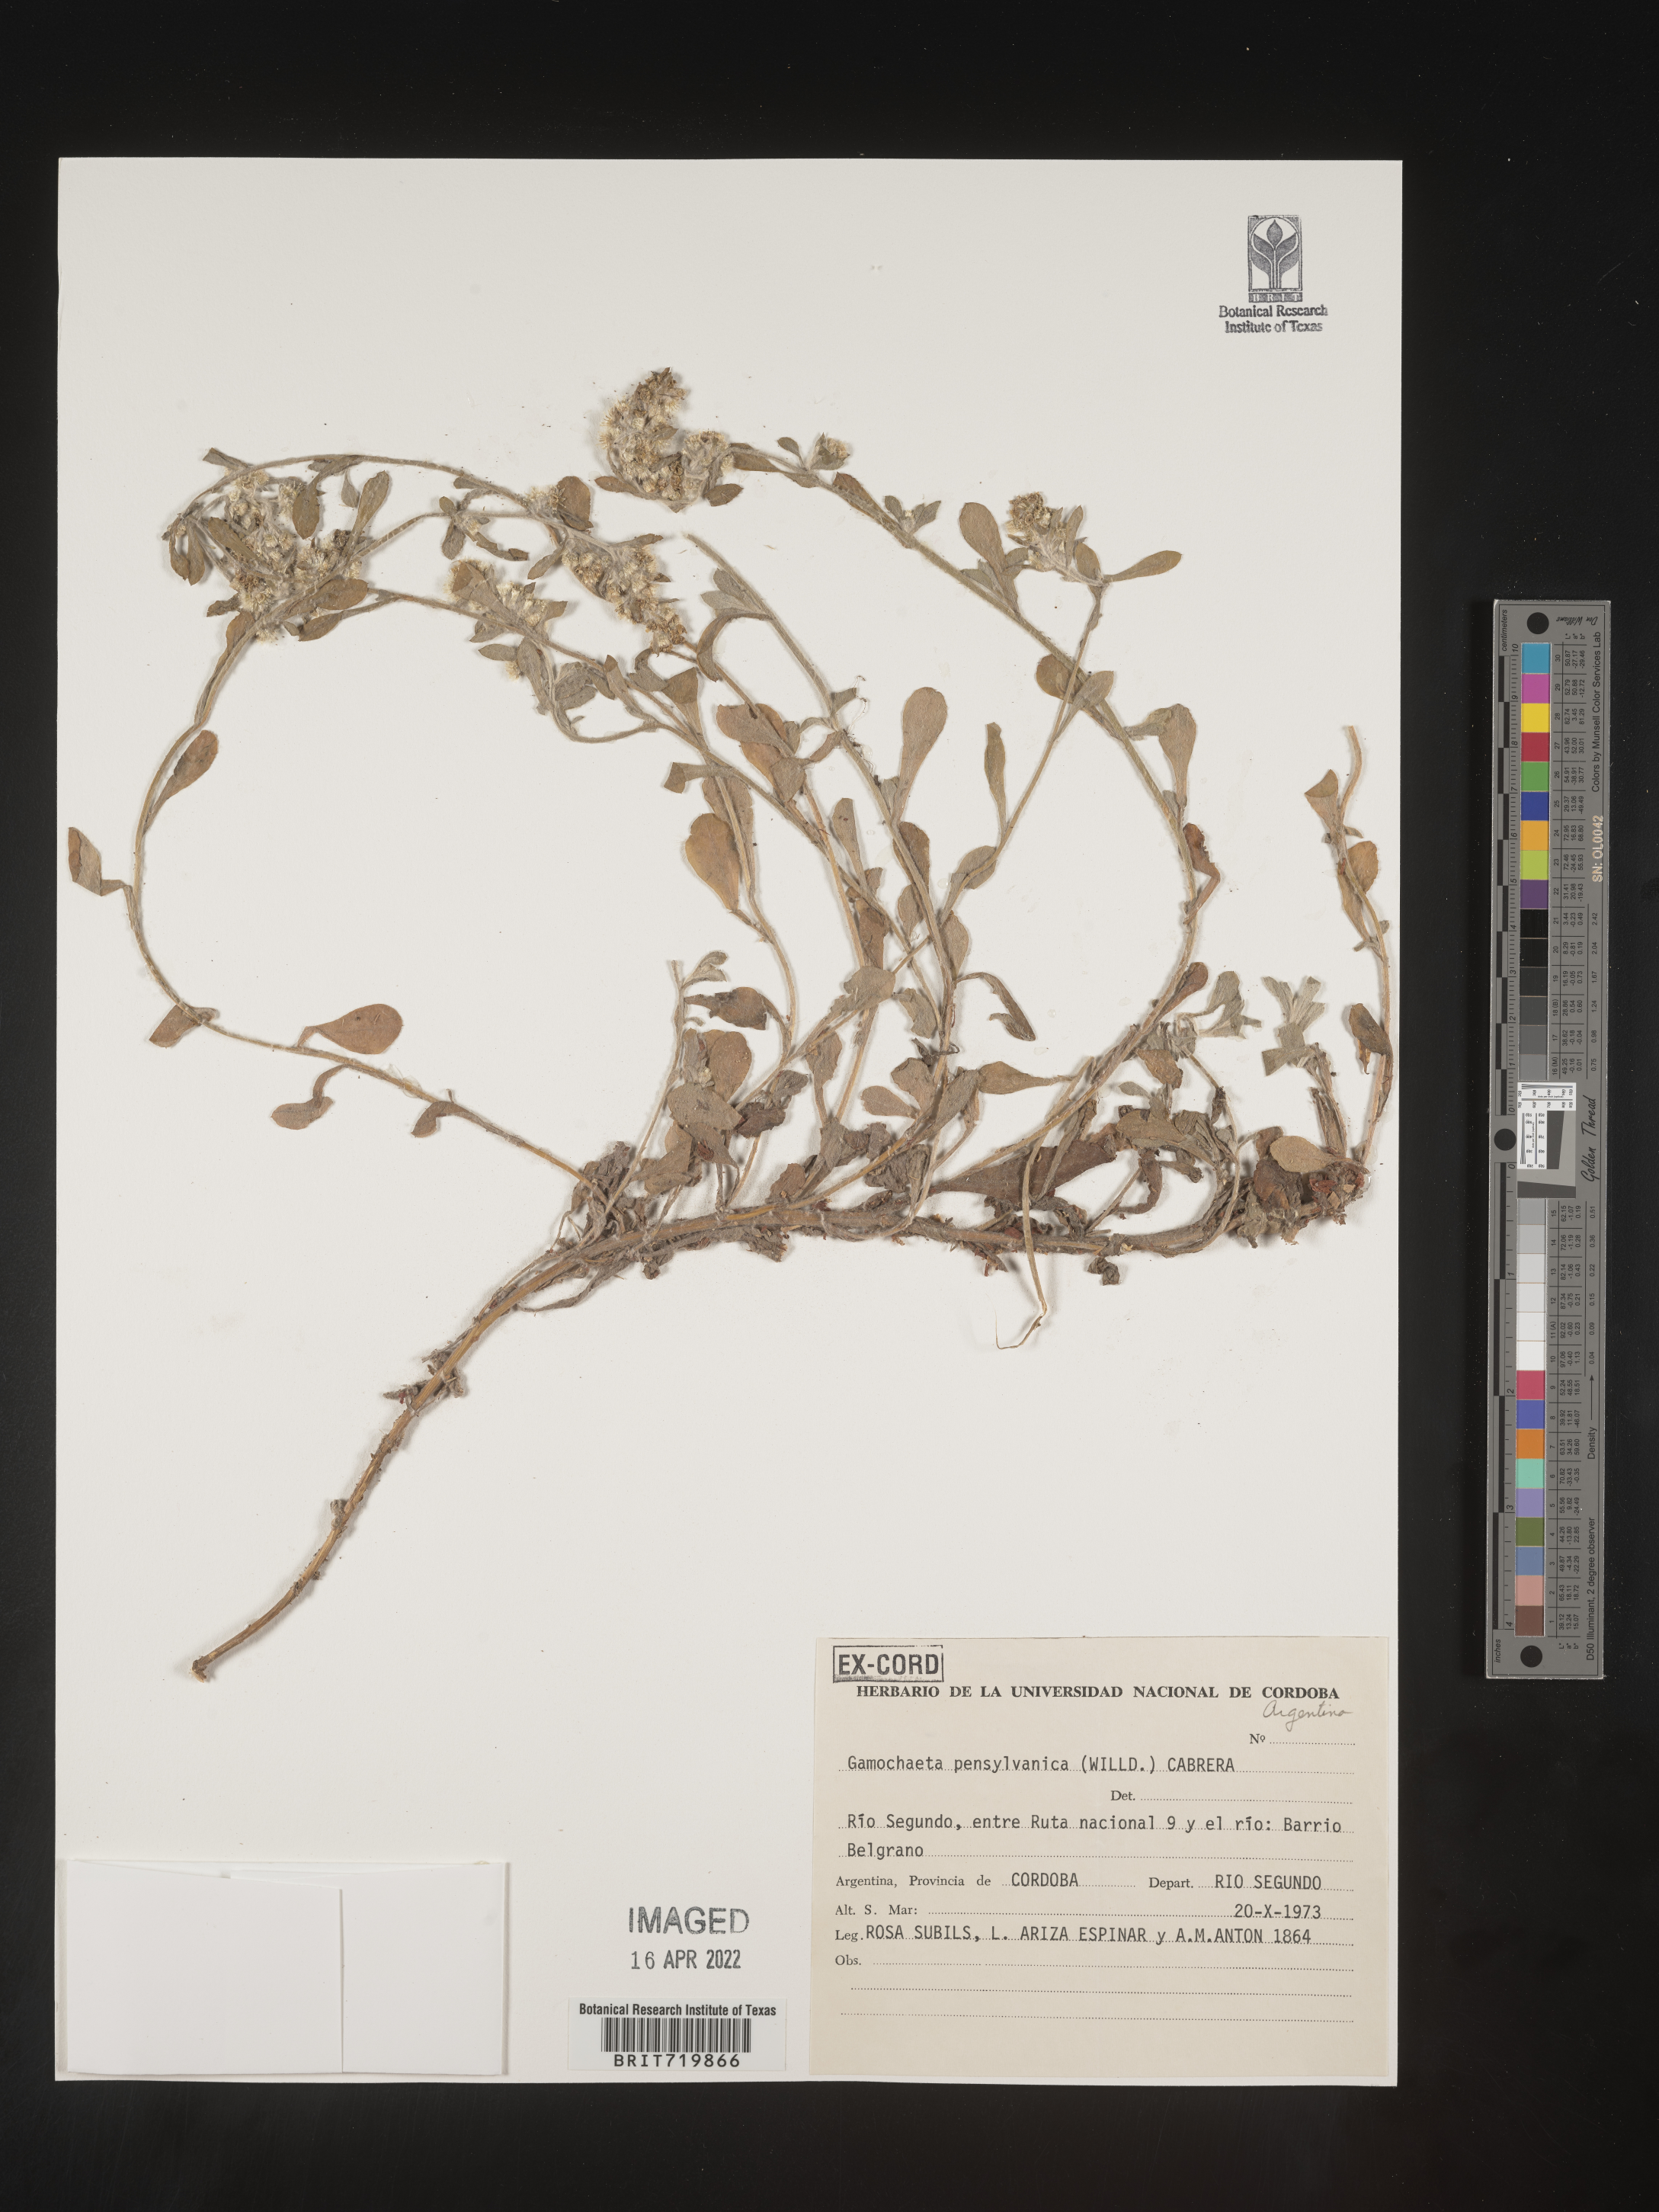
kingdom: Plantae
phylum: Tracheophyta
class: Magnoliopsida
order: Asterales
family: Asteraceae
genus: Gamochaeta
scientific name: Gamochaeta
